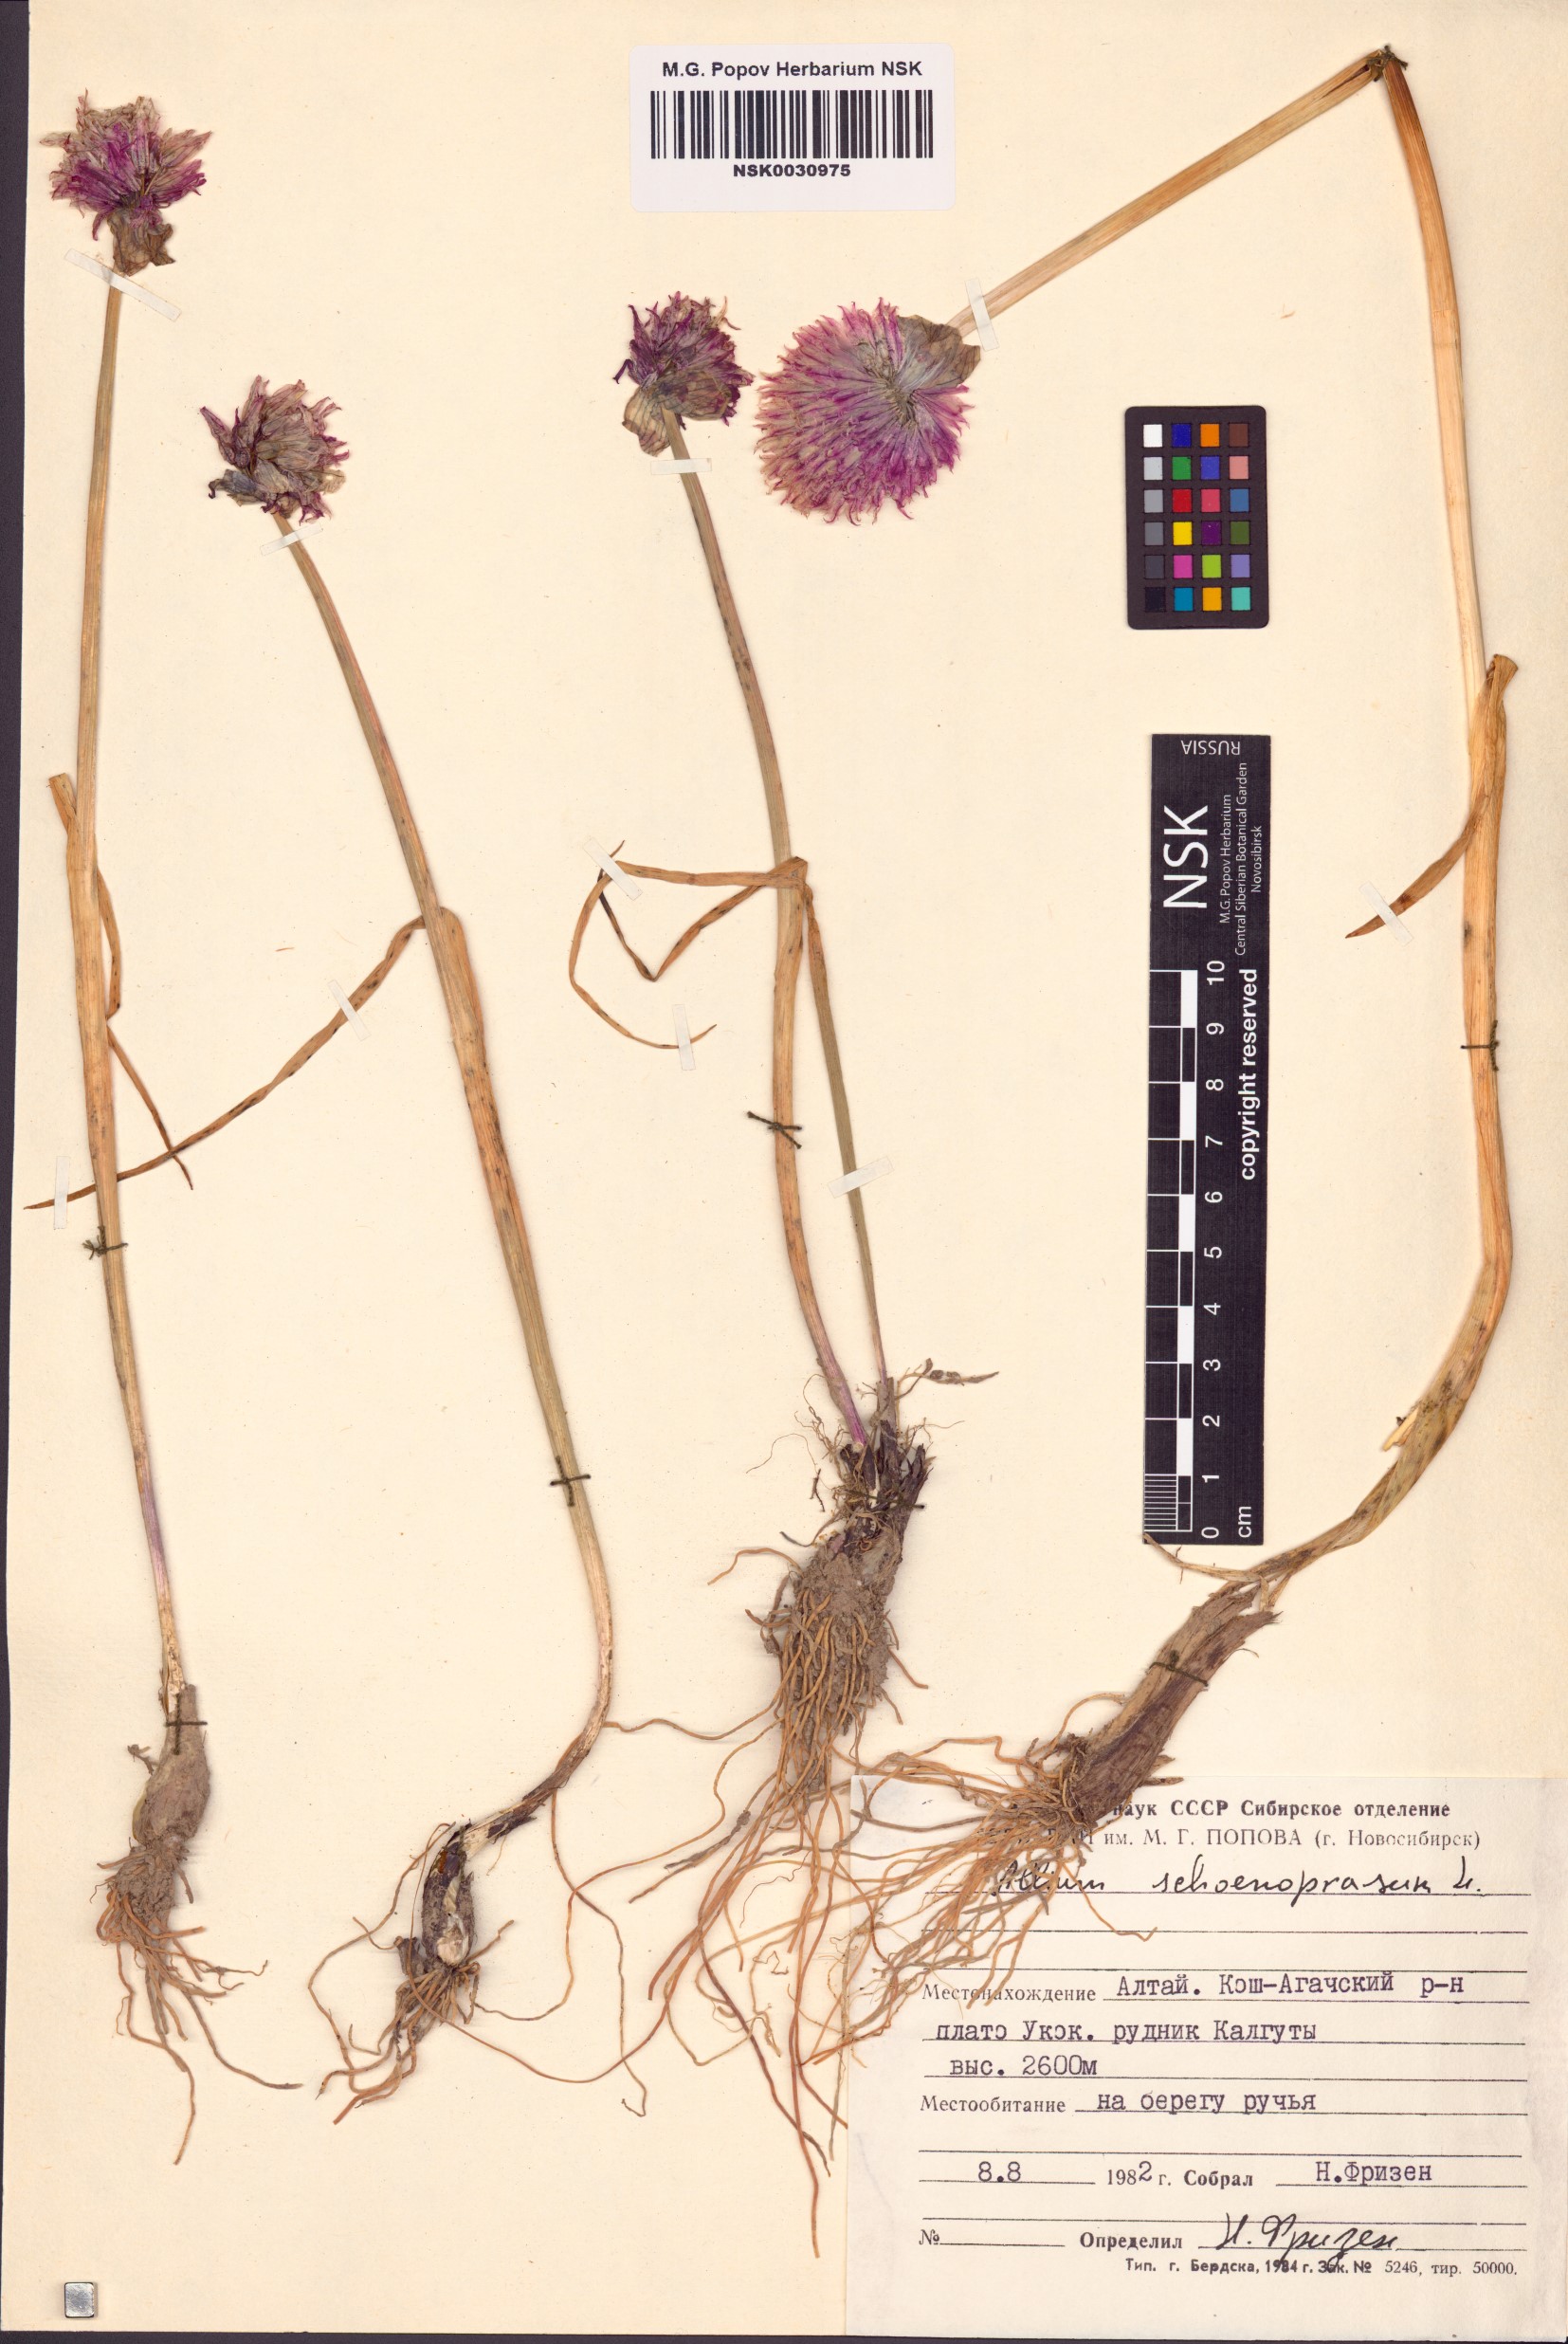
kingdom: Plantae
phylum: Tracheophyta
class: Liliopsida
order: Asparagales
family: Amaryllidaceae
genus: Allium
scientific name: Allium schoenoprasum
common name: Chives
